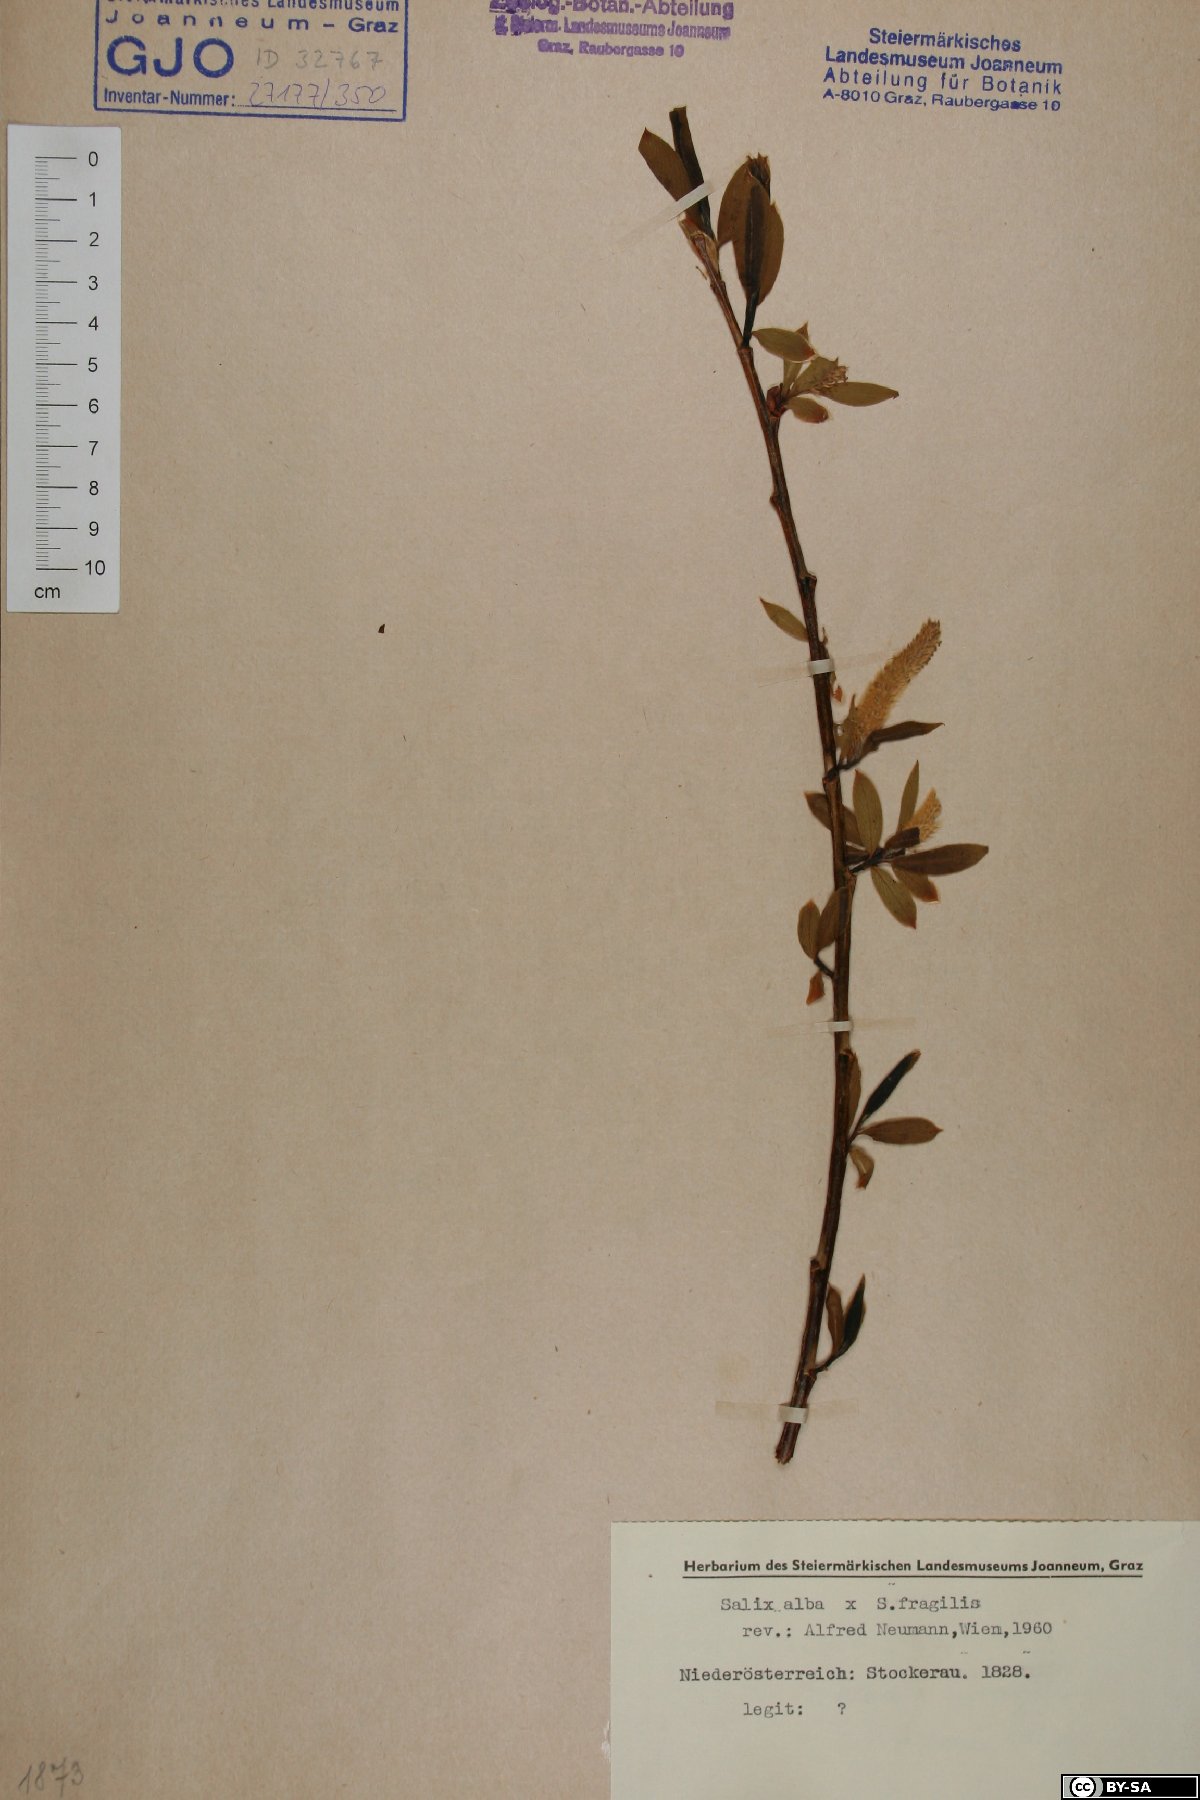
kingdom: Plantae
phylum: Tracheophyta
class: Magnoliopsida
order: Malpighiales
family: Salicaceae
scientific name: Salicaceae
